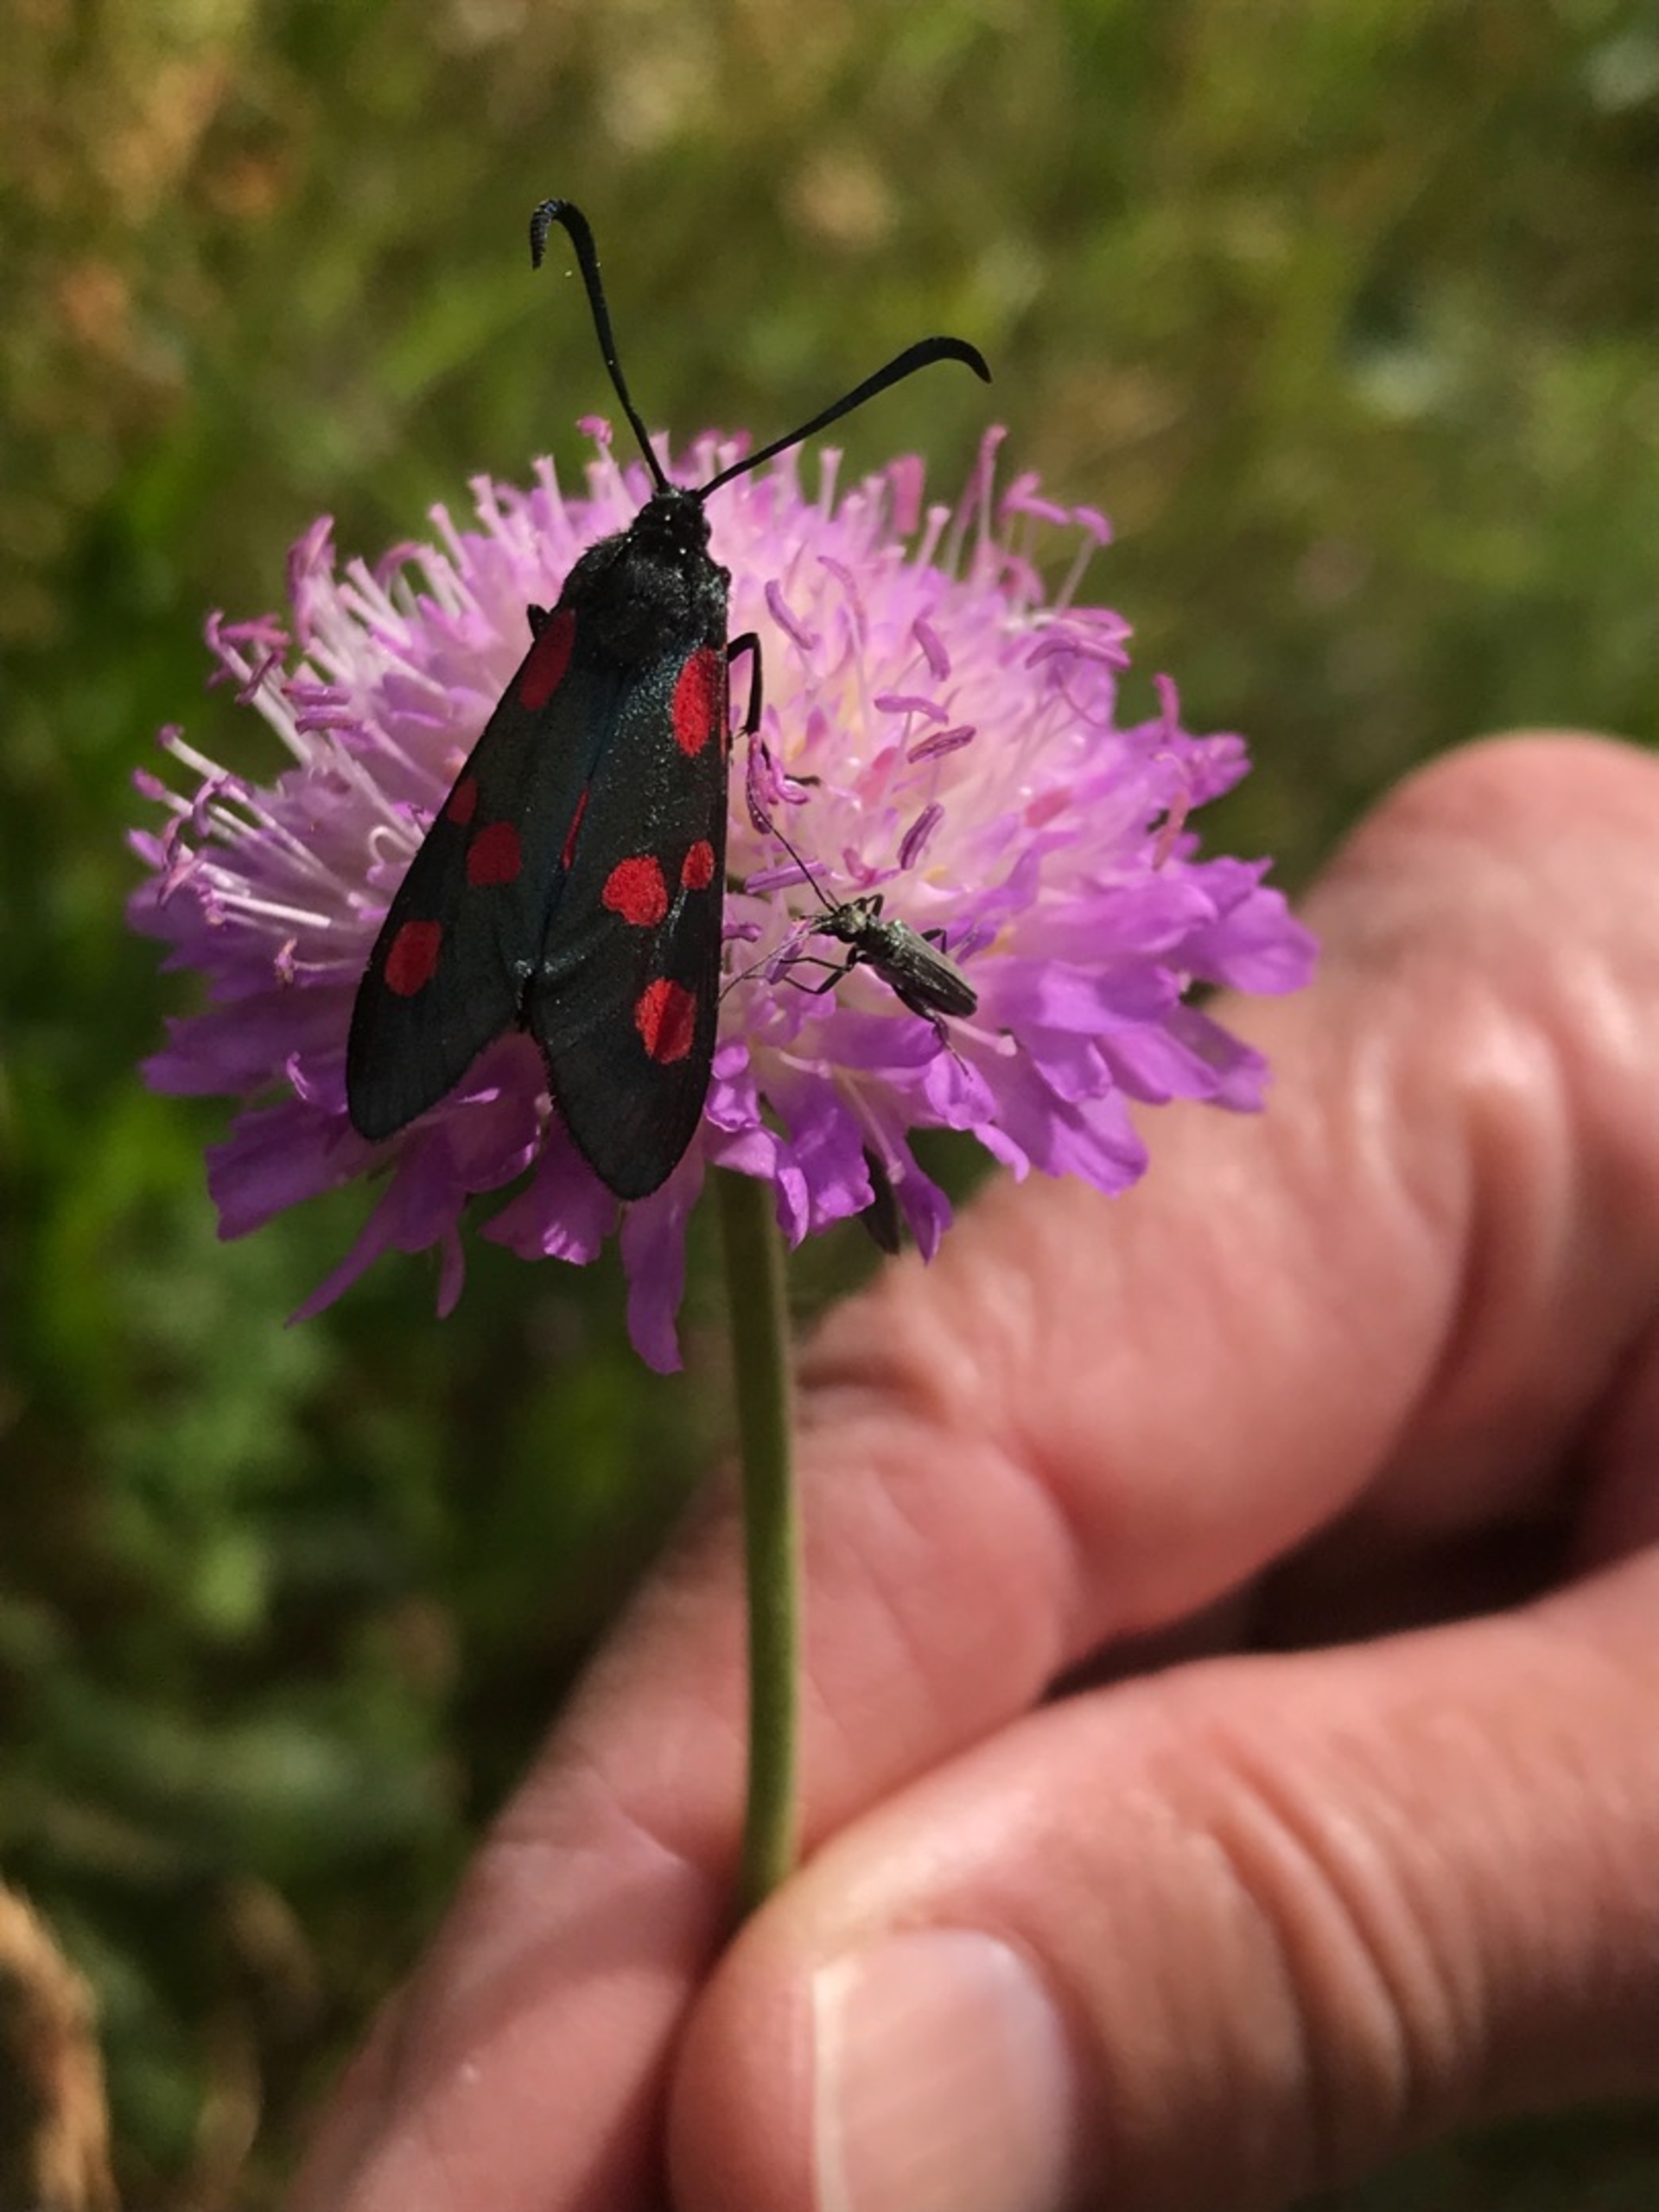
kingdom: Animalia
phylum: Arthropoda
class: Insecta
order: Lepidoptera
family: Zygaenidae
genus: Zygaena
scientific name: Zygaena lonicerae
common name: Femplettet køllesværmer
